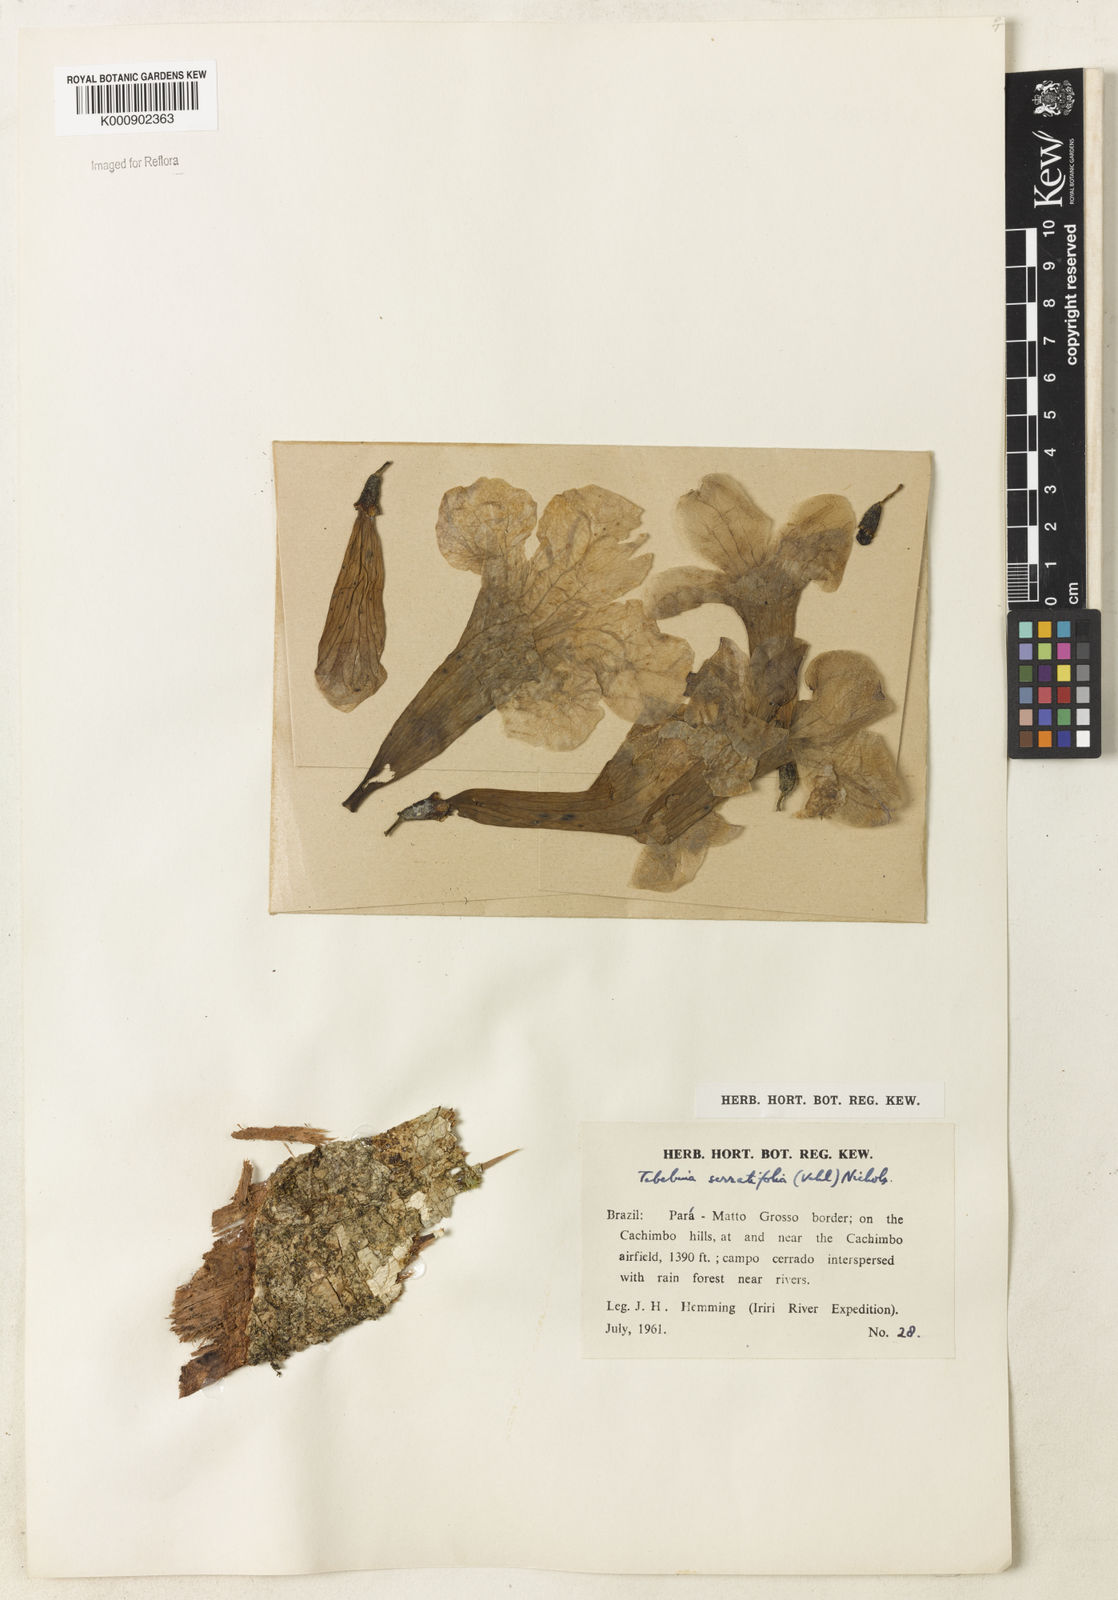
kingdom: Plantae
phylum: Tracheophyta
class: Magnoliopsida
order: Lamiales
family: Bignoniaceae
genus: Handroanthus
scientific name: Handroanthus serratifolius
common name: Yellow ipe
